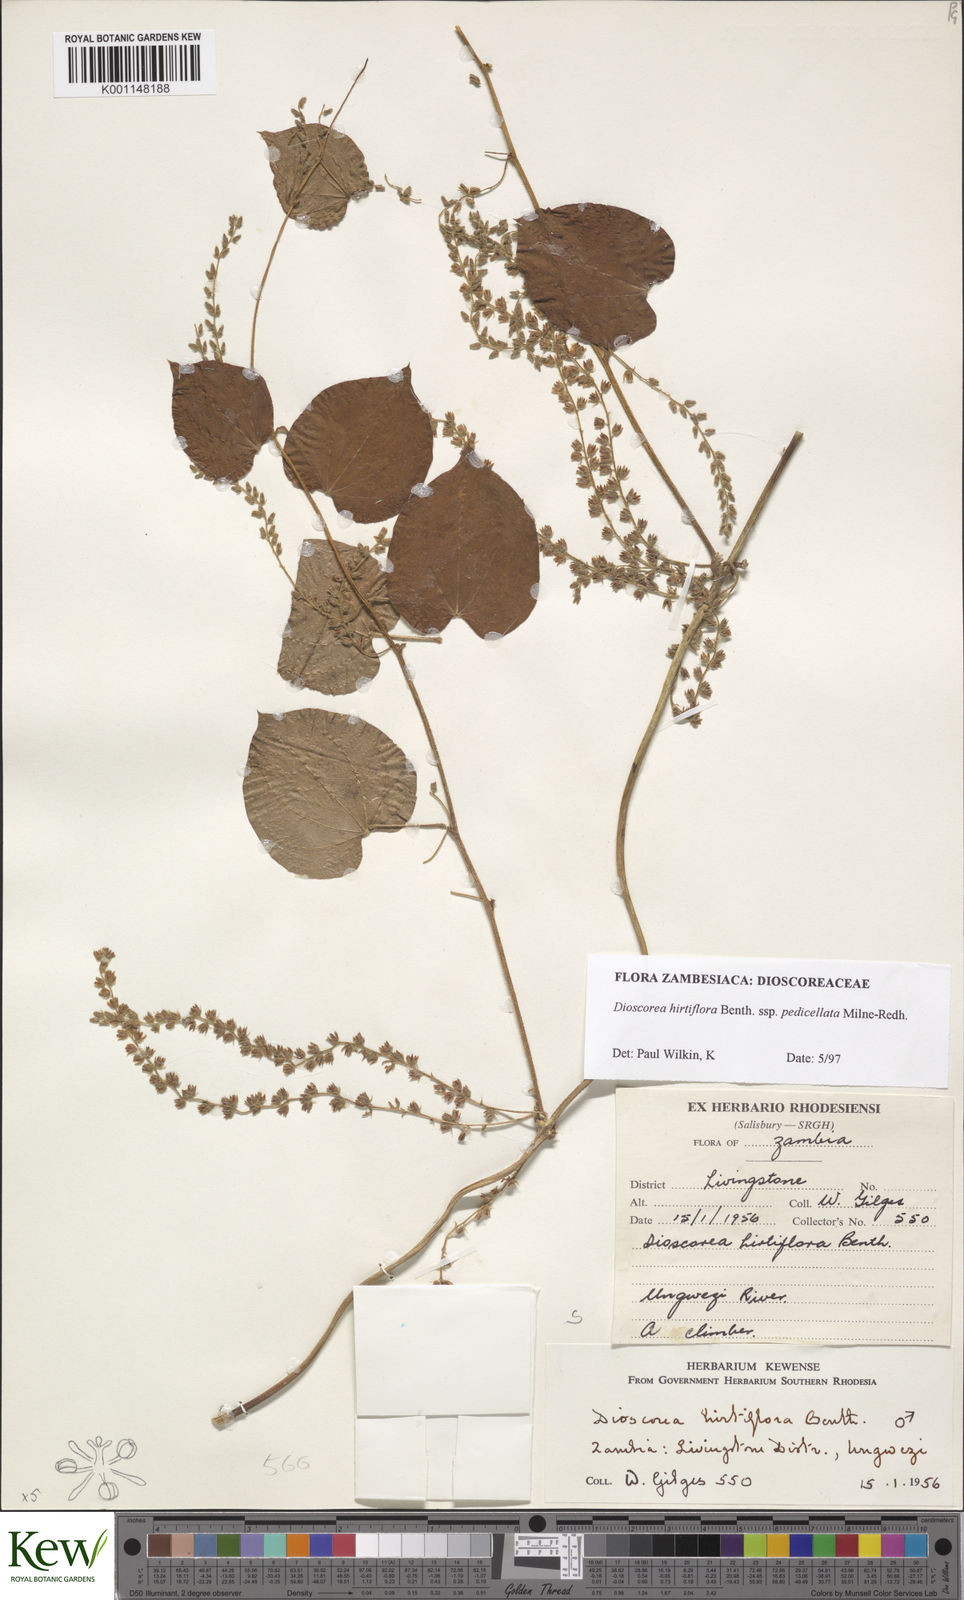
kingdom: Plantae
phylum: Tracheophyta
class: Liliopsida
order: Dioscoreales
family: Dioscoreaceae
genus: Dioscorea
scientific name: Dioscorea hirtiflora
